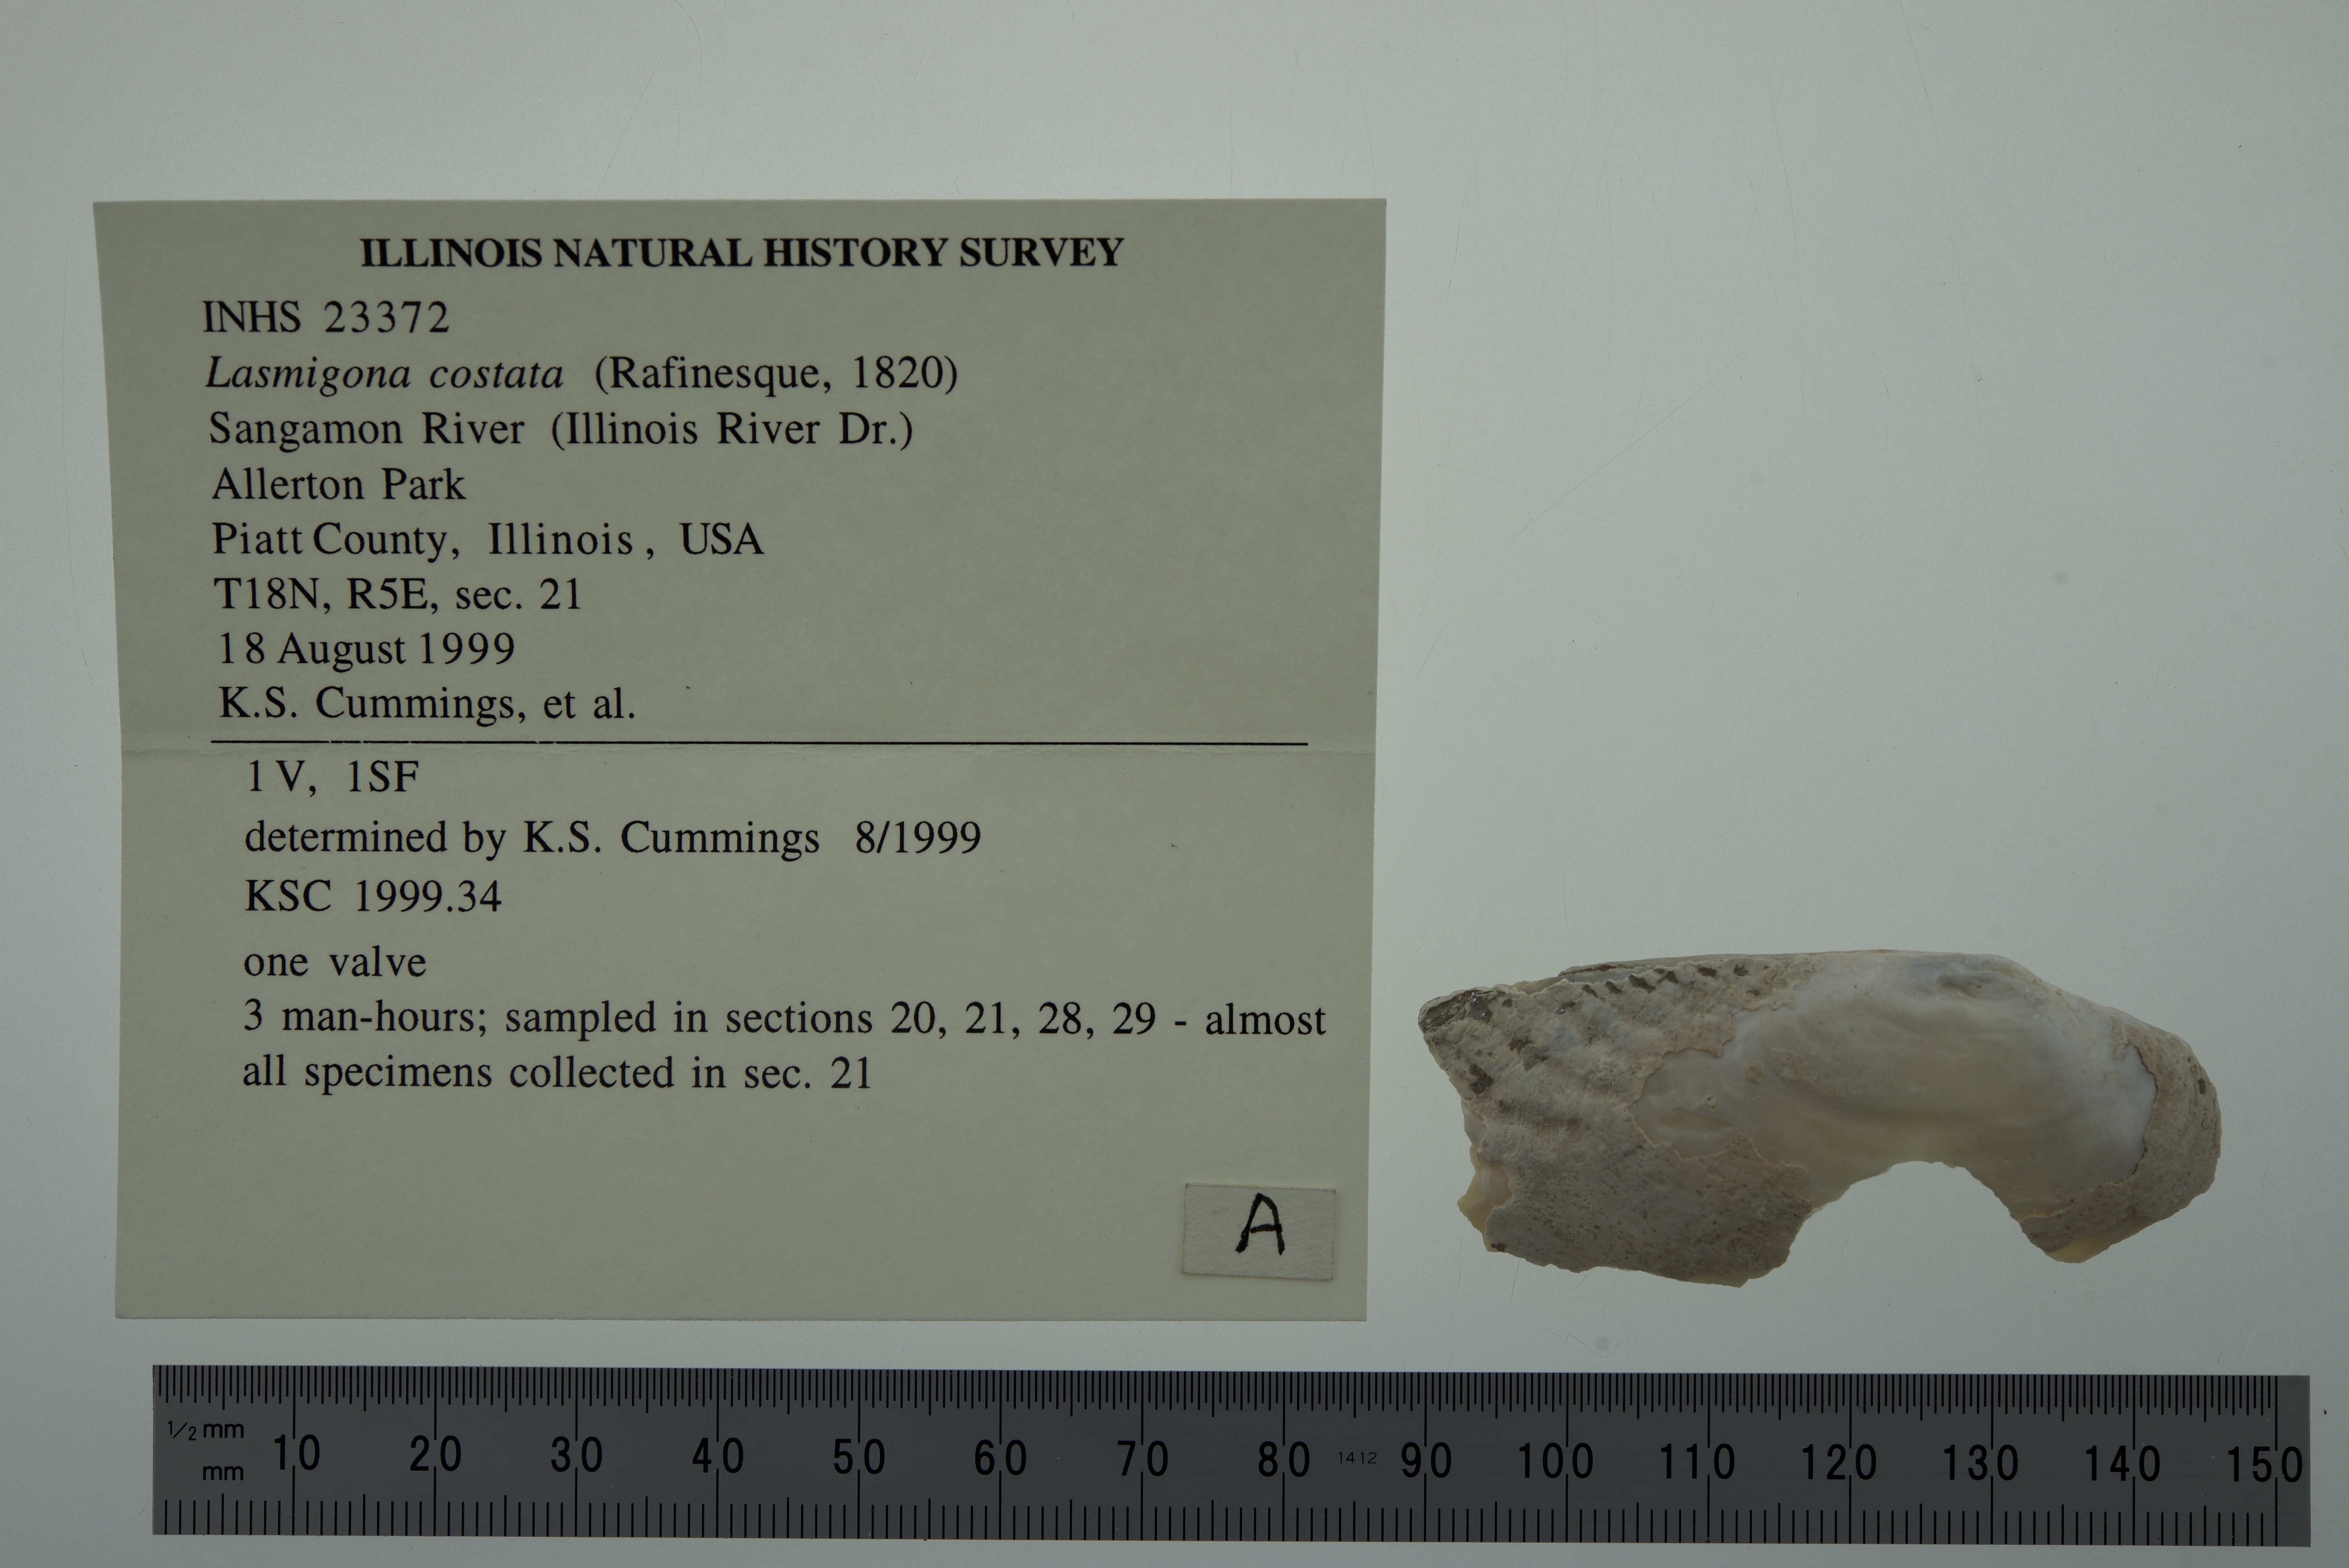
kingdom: Animalia
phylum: Mollusca
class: Bivalvia
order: Unionida
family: Unionidae
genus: Lasmigona
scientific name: Lasmigona costata
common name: Flutedshell
